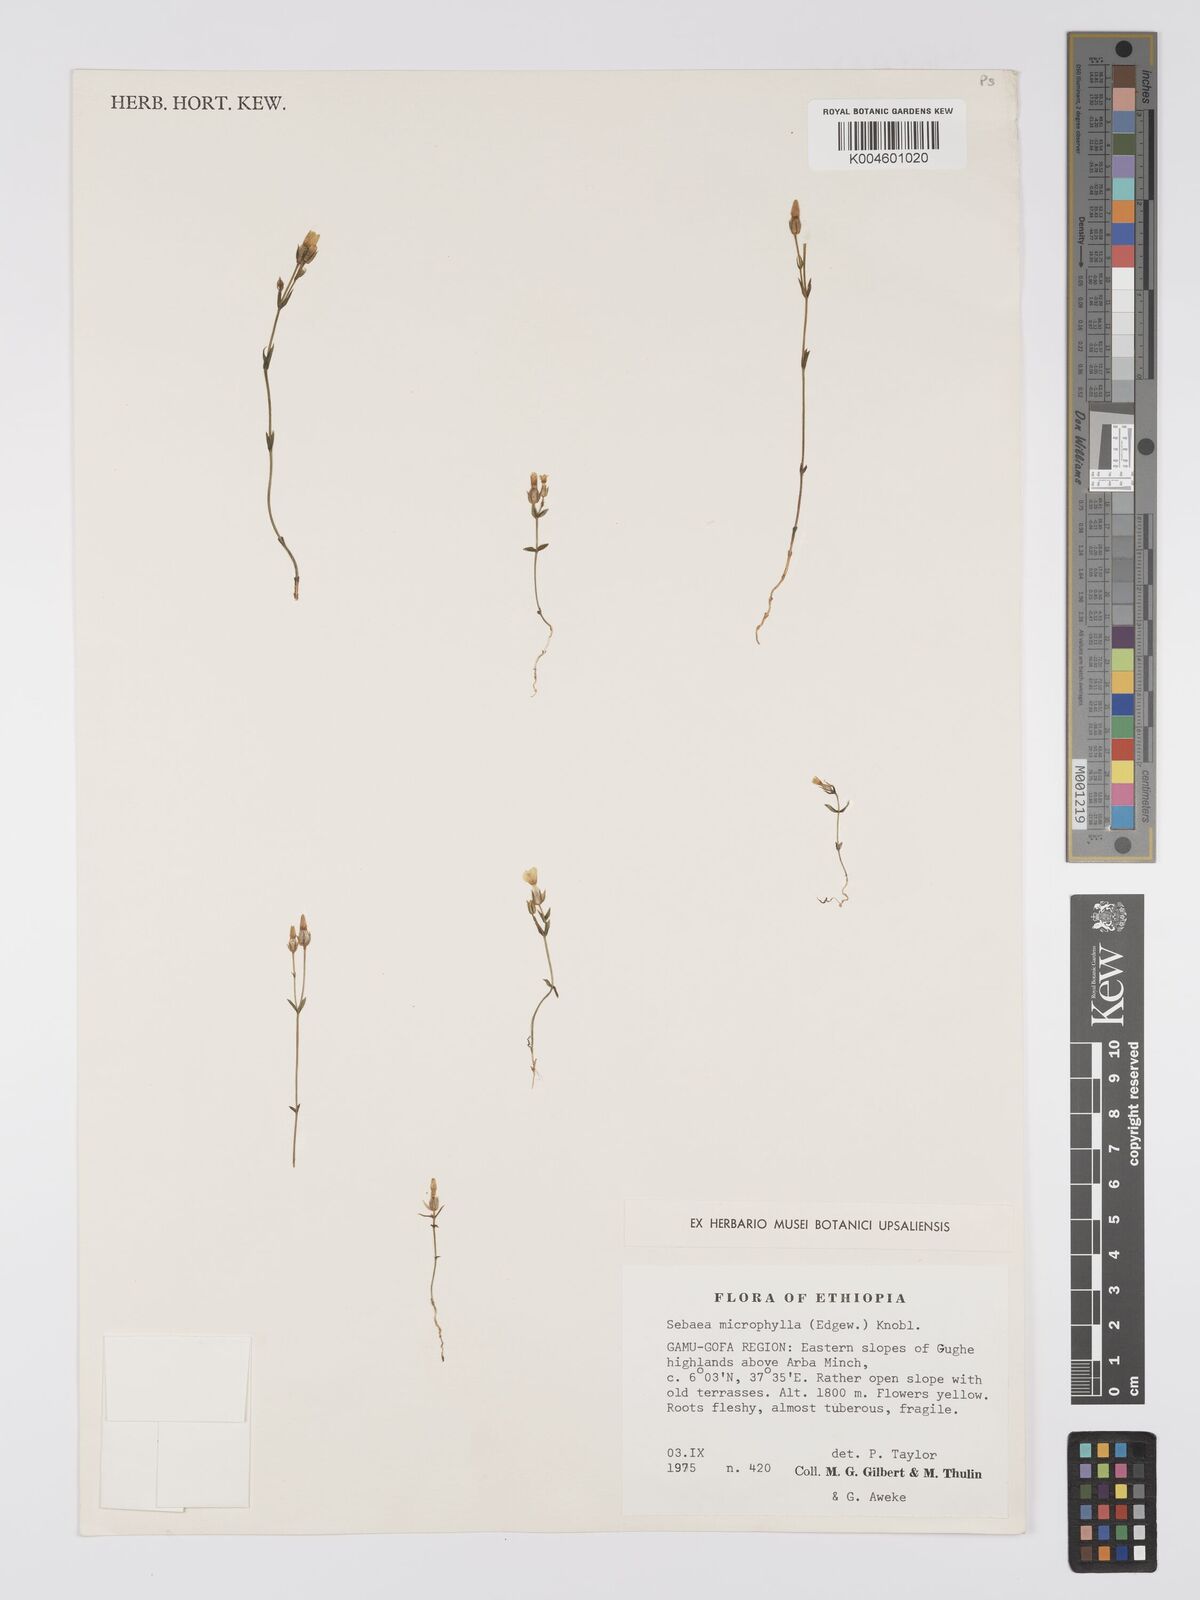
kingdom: Plantae
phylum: Tracheophyta
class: Magnoliopsida
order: Gentianales
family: Gentianaceae
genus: Sebaea
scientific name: Sebaea microphylla
